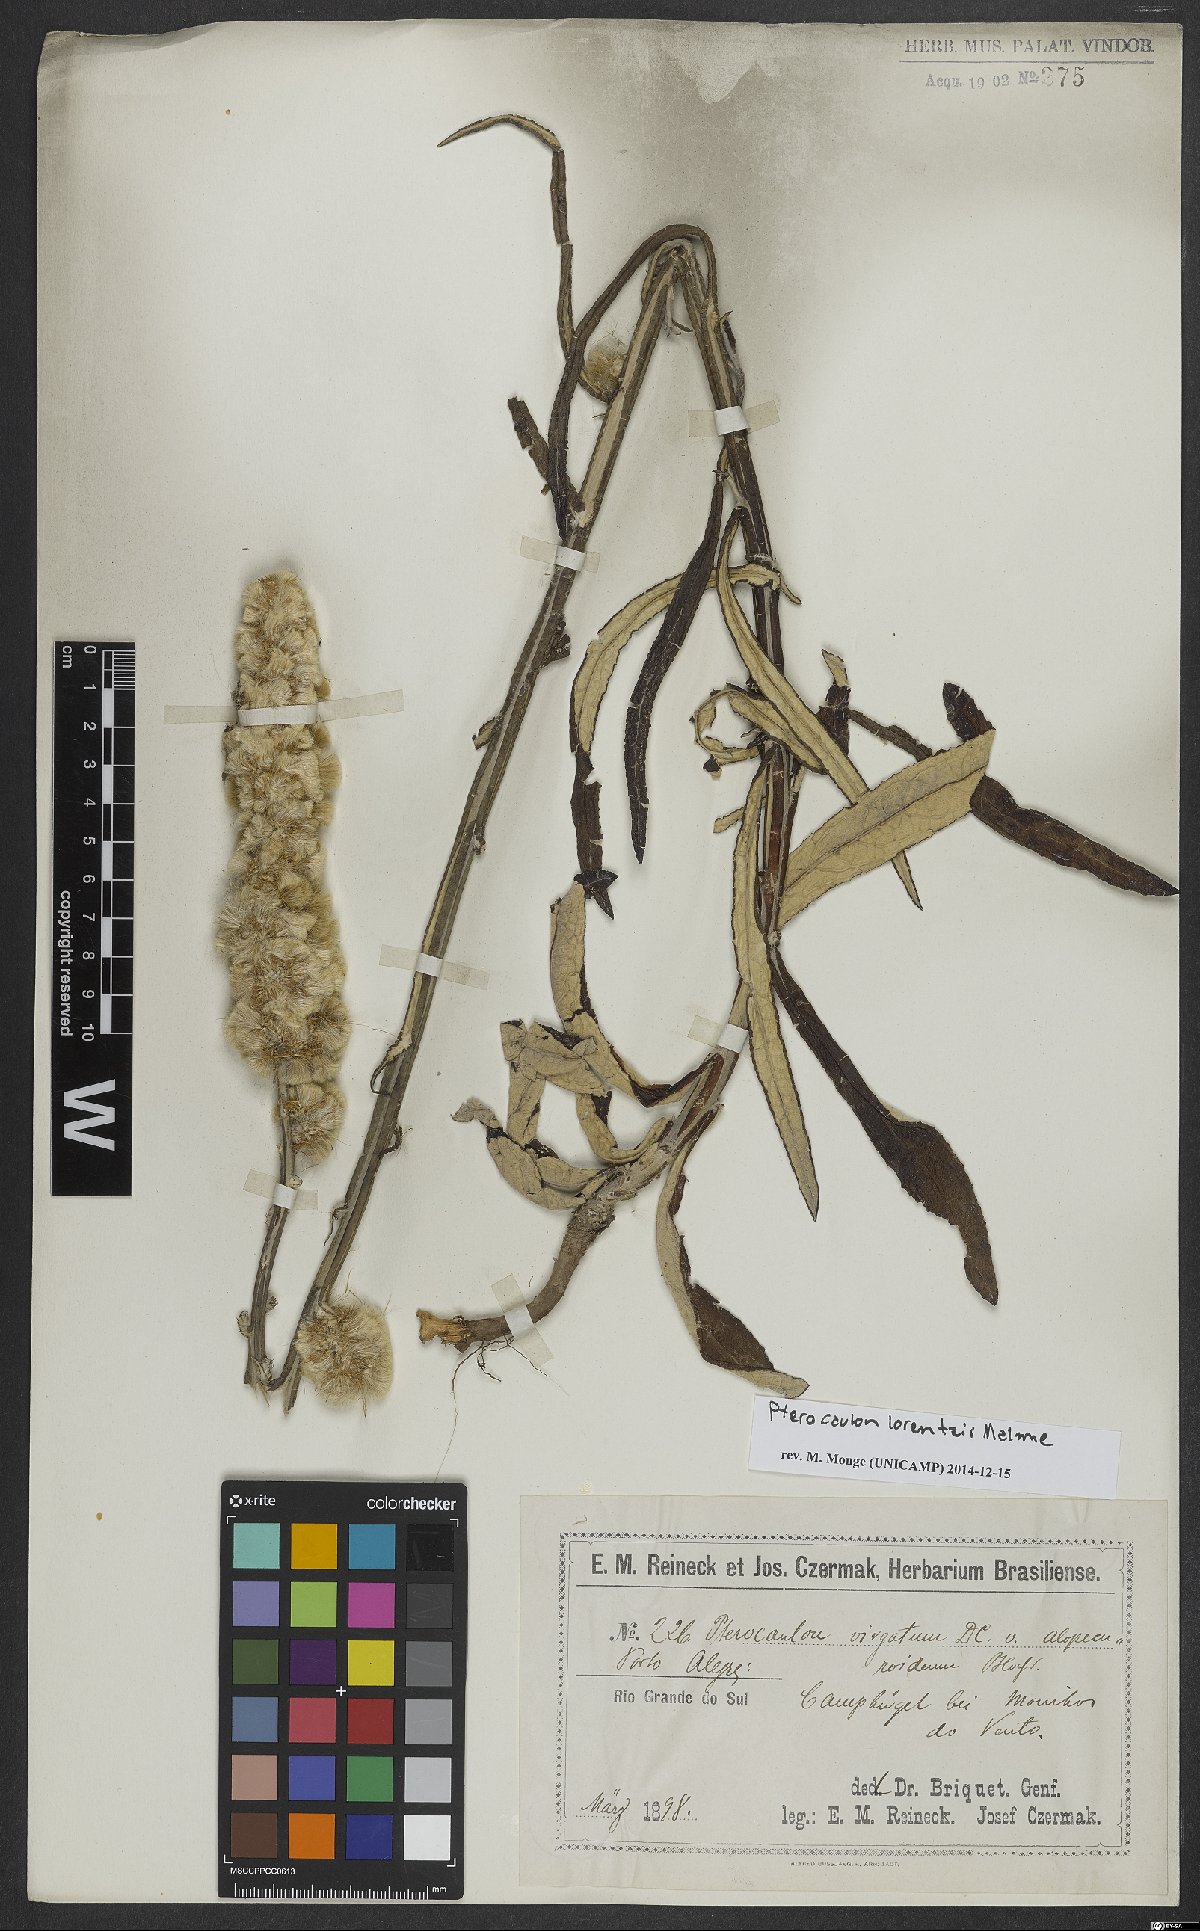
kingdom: Plantae
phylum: Tracheophyta
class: Magnoliopsida
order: Asterales
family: Asteraceae
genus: Pterocaulon
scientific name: Pterocaulon lorentzii
